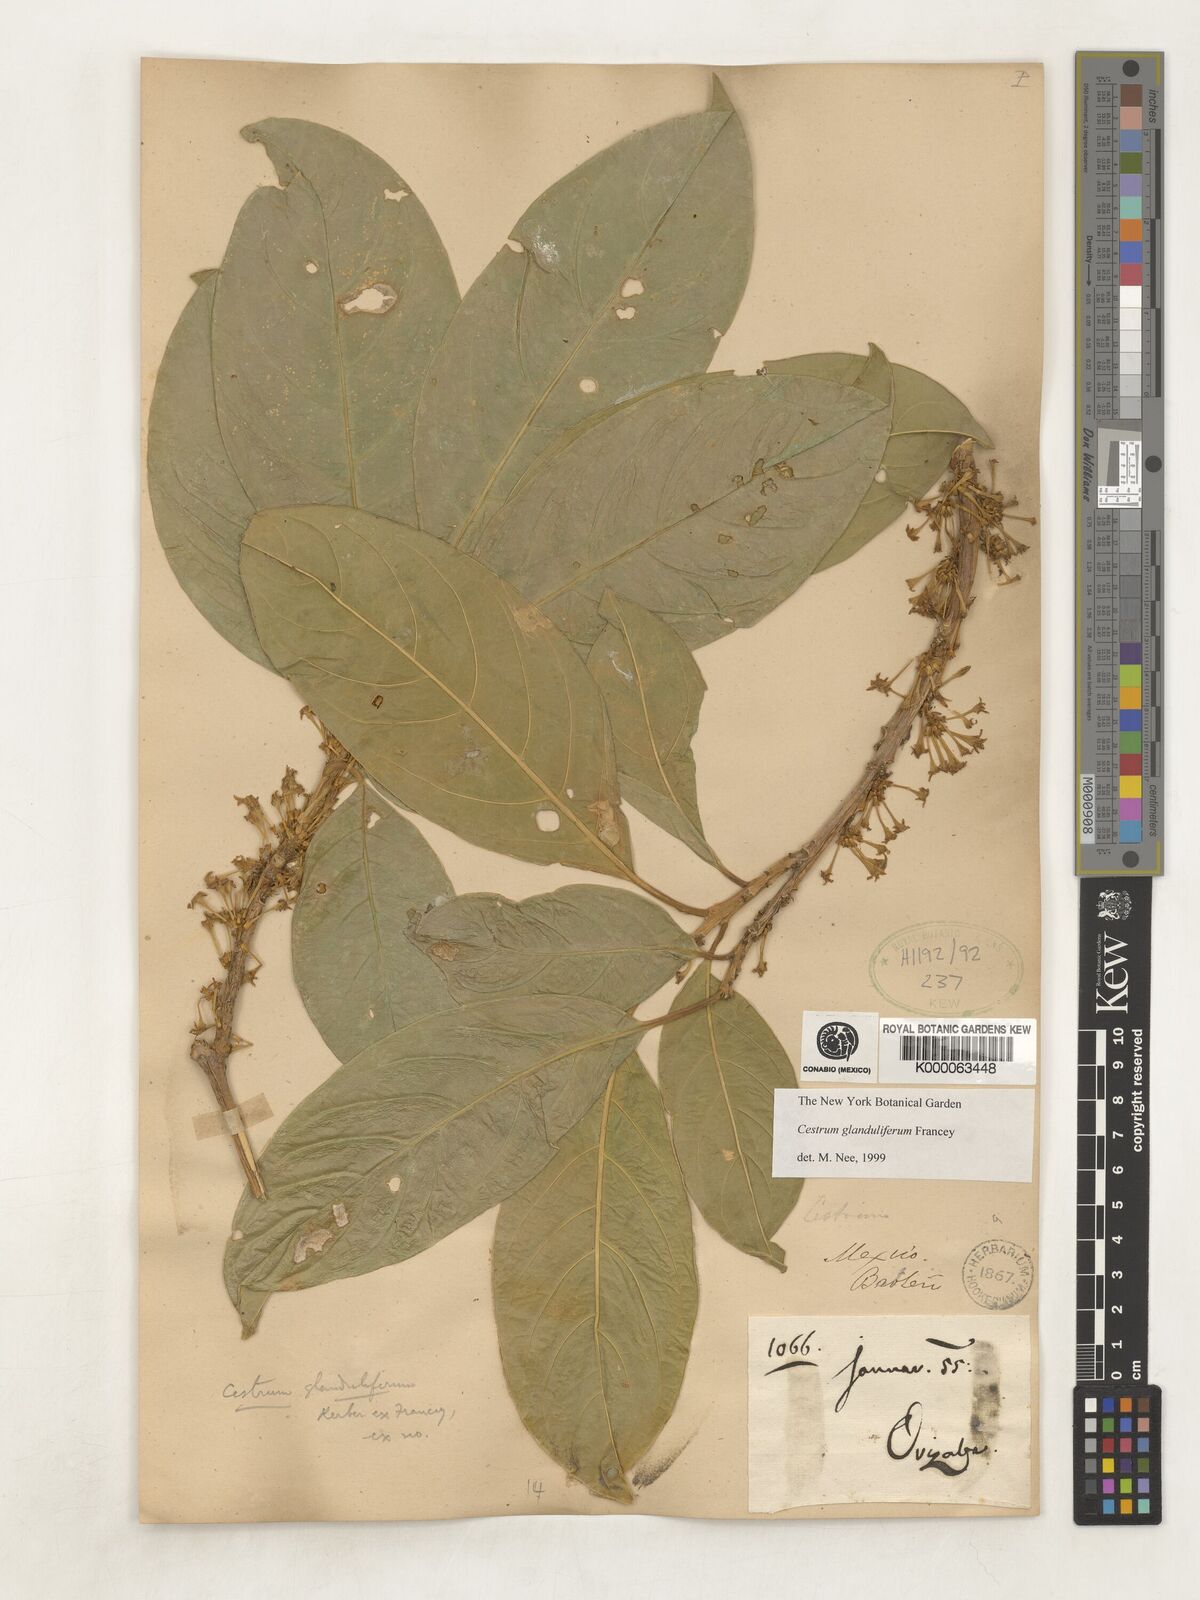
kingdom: Plantae
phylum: Tracheophyta
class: Magnoliopsida
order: Solanales
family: Solanaceae
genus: Cestrum
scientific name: Cestrum glanduliferum
